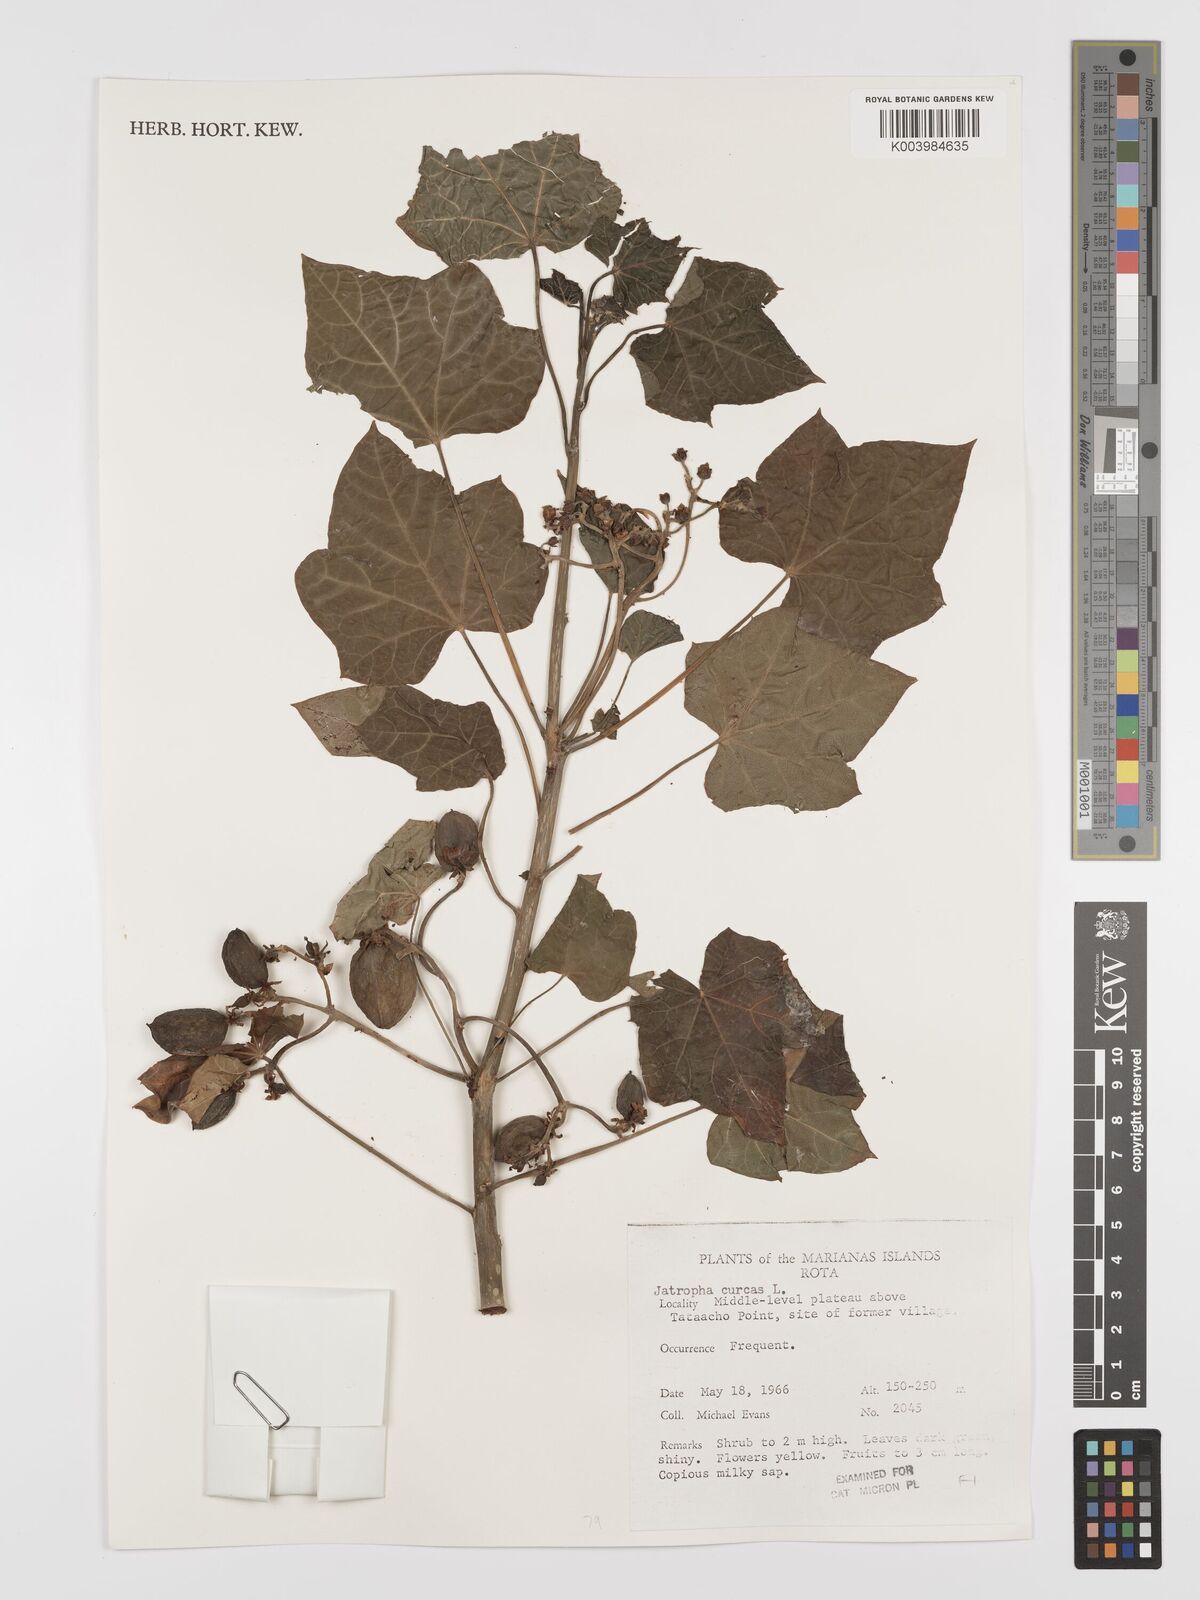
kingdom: Plantae
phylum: Tracheophyta
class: Magnoliopsida
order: Malpighiales
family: Euphorbiaceae
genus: Jatropha
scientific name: Jatropha curcas
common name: Barbados nut
